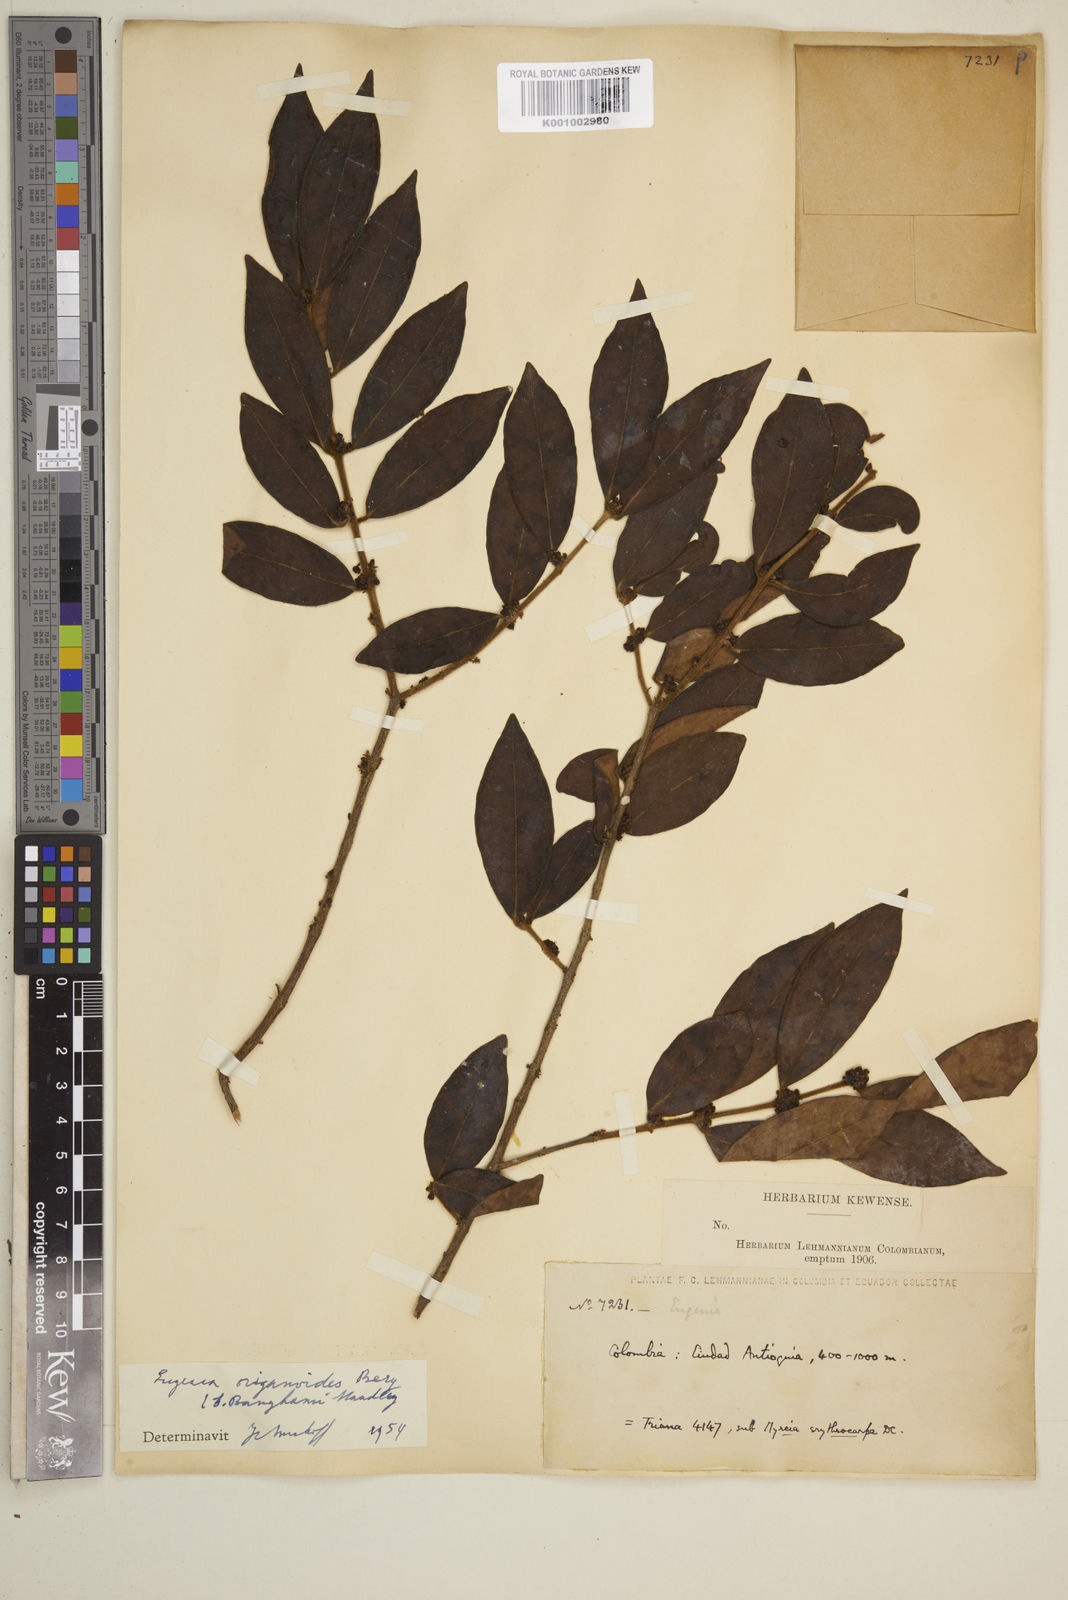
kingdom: Plantae
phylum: Tracheophyta
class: Magnoliopsida
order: Myrtales
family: Myrtaceae
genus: Eugenia
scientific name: Eugenia venezuelensis
